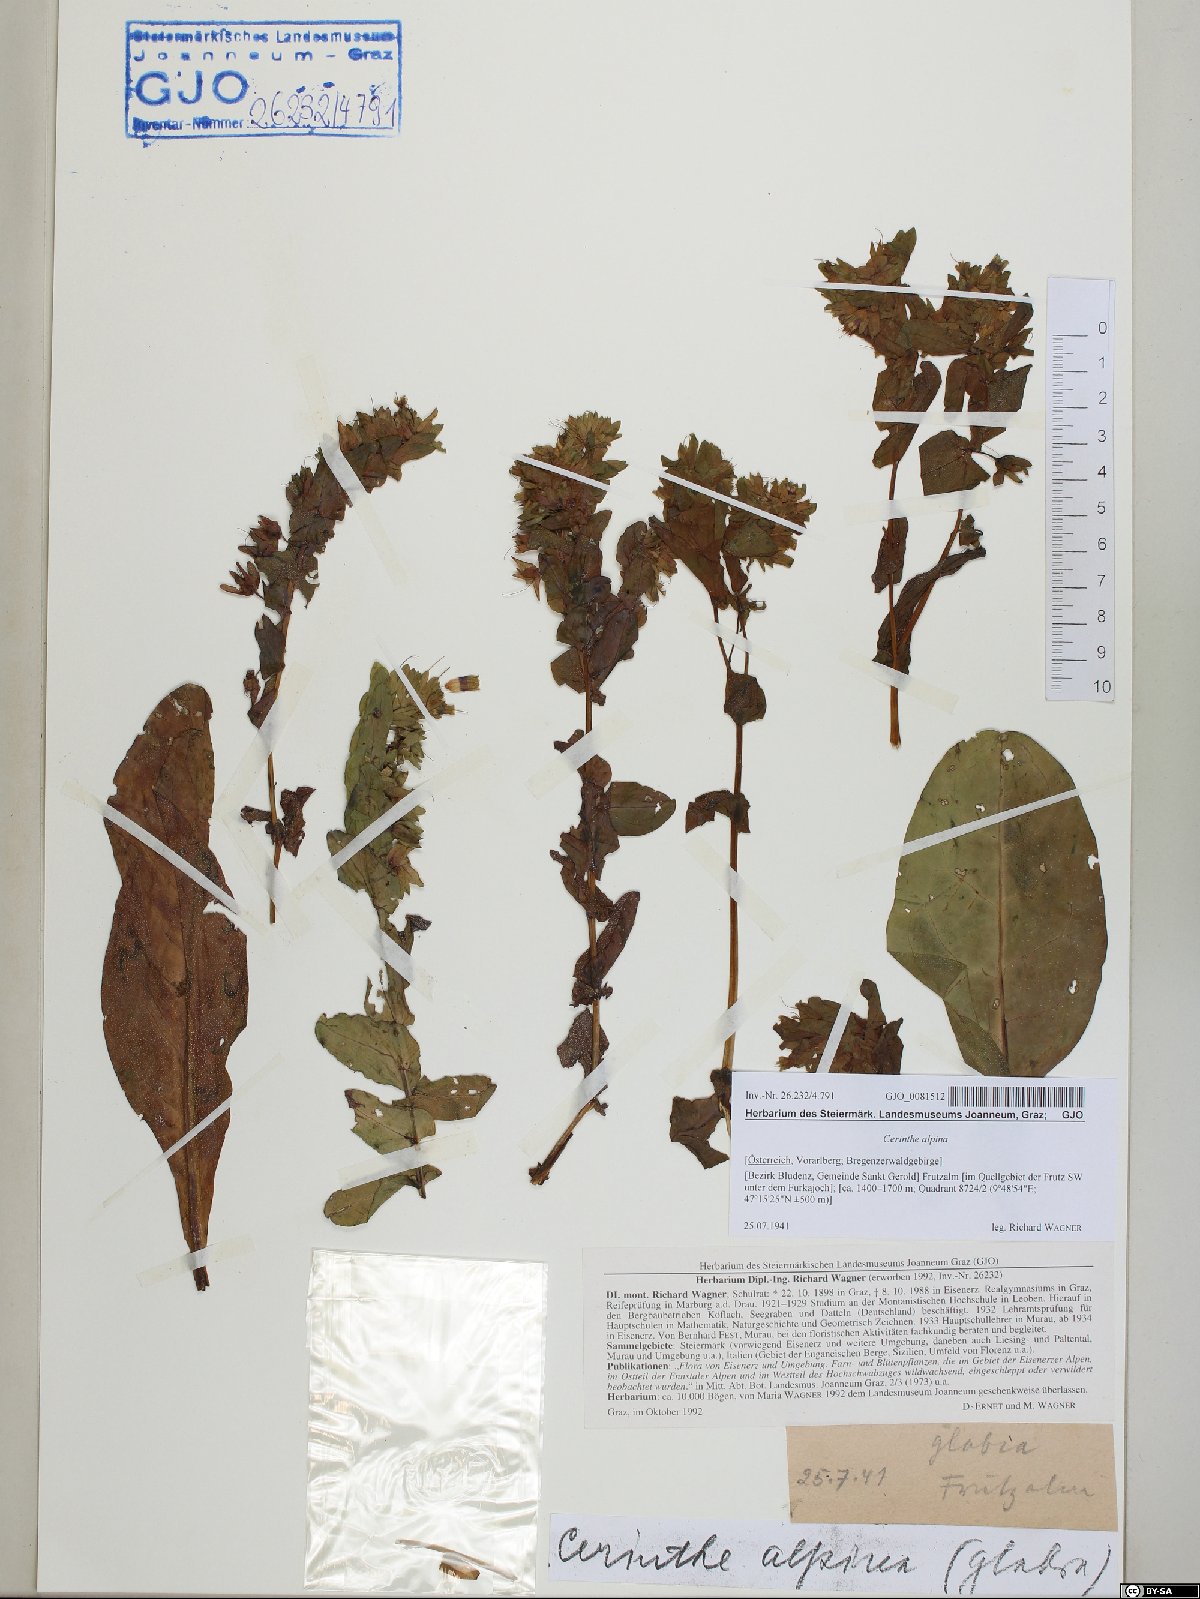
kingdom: Plantae
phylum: Tracheophyta
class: Magnoliopsida
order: Boraginales
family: Boraginaceae
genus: Cerinthe
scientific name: Cerinthe glabra
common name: Smooth honeywort
